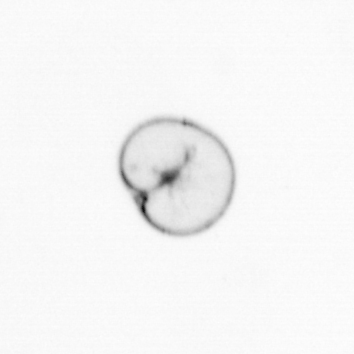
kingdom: Chromista
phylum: Myzozoa
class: Dinophyceae
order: Noctilucales
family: Noctilucaceae
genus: Noctiluca
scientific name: Noctiluca scintillans
